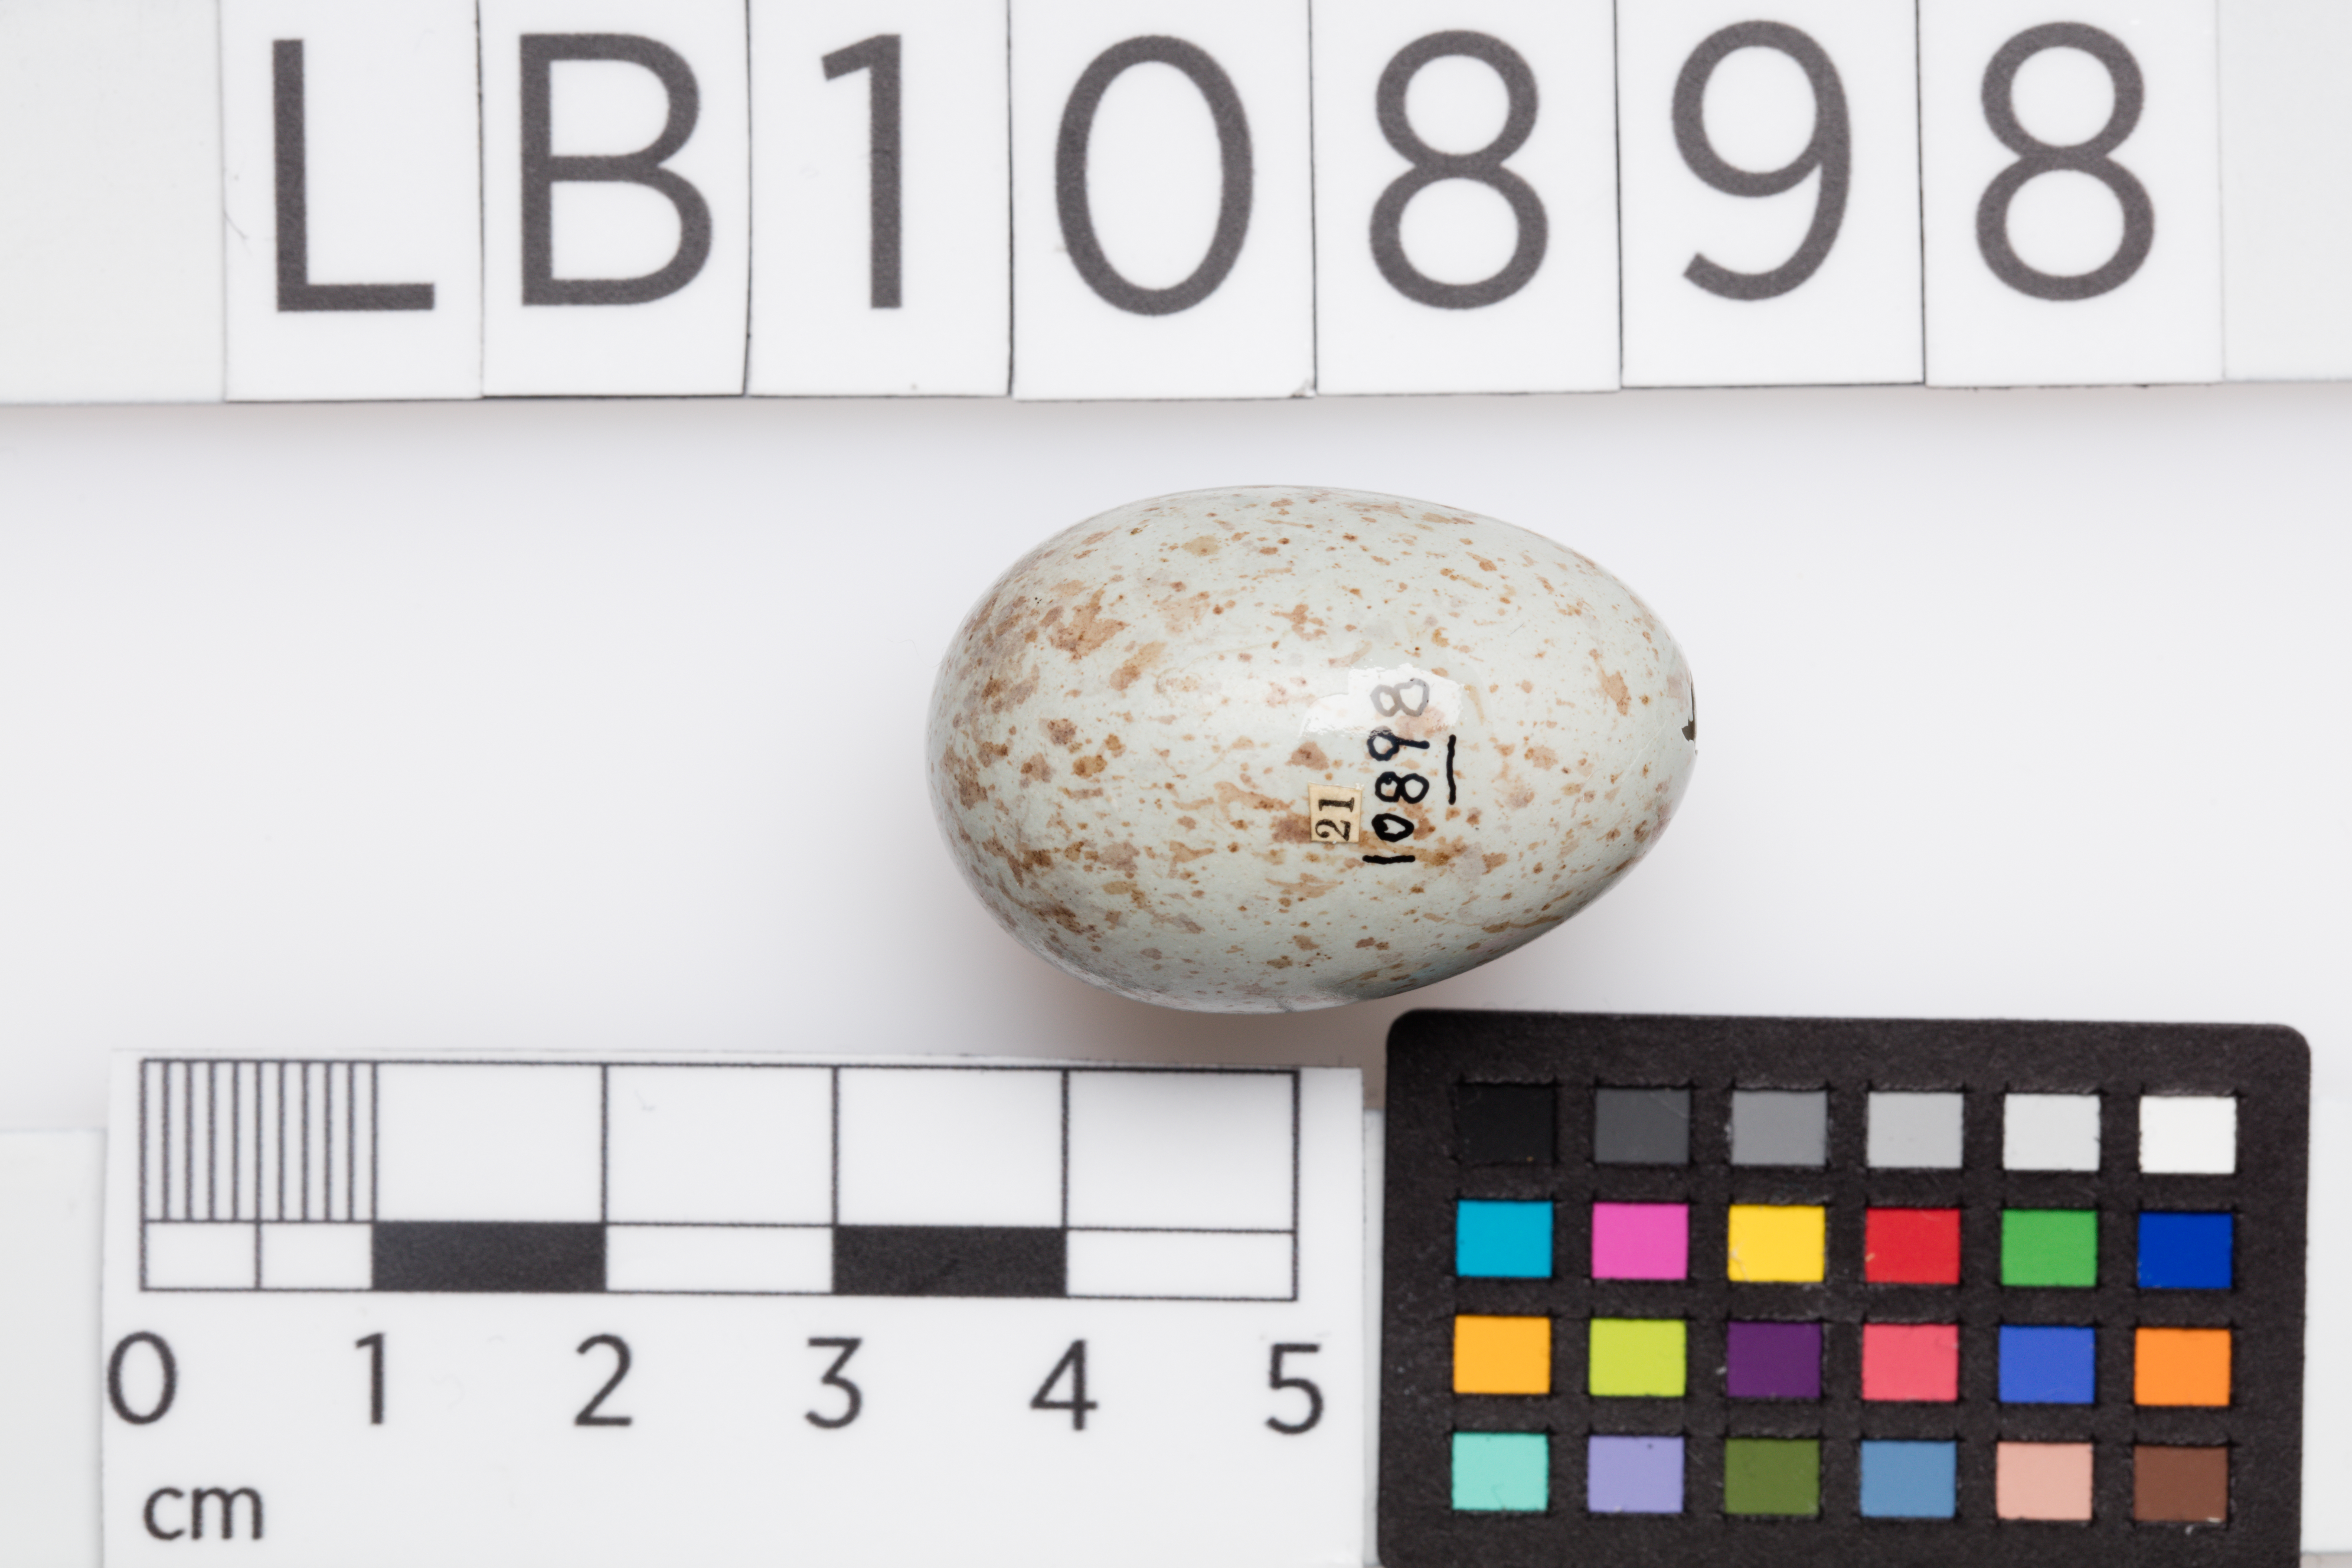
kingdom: Animalia
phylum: Chordata
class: Aves
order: Passeriformes
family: Turdidae
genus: Turdus
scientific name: Turdus merula
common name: Common blackbird
